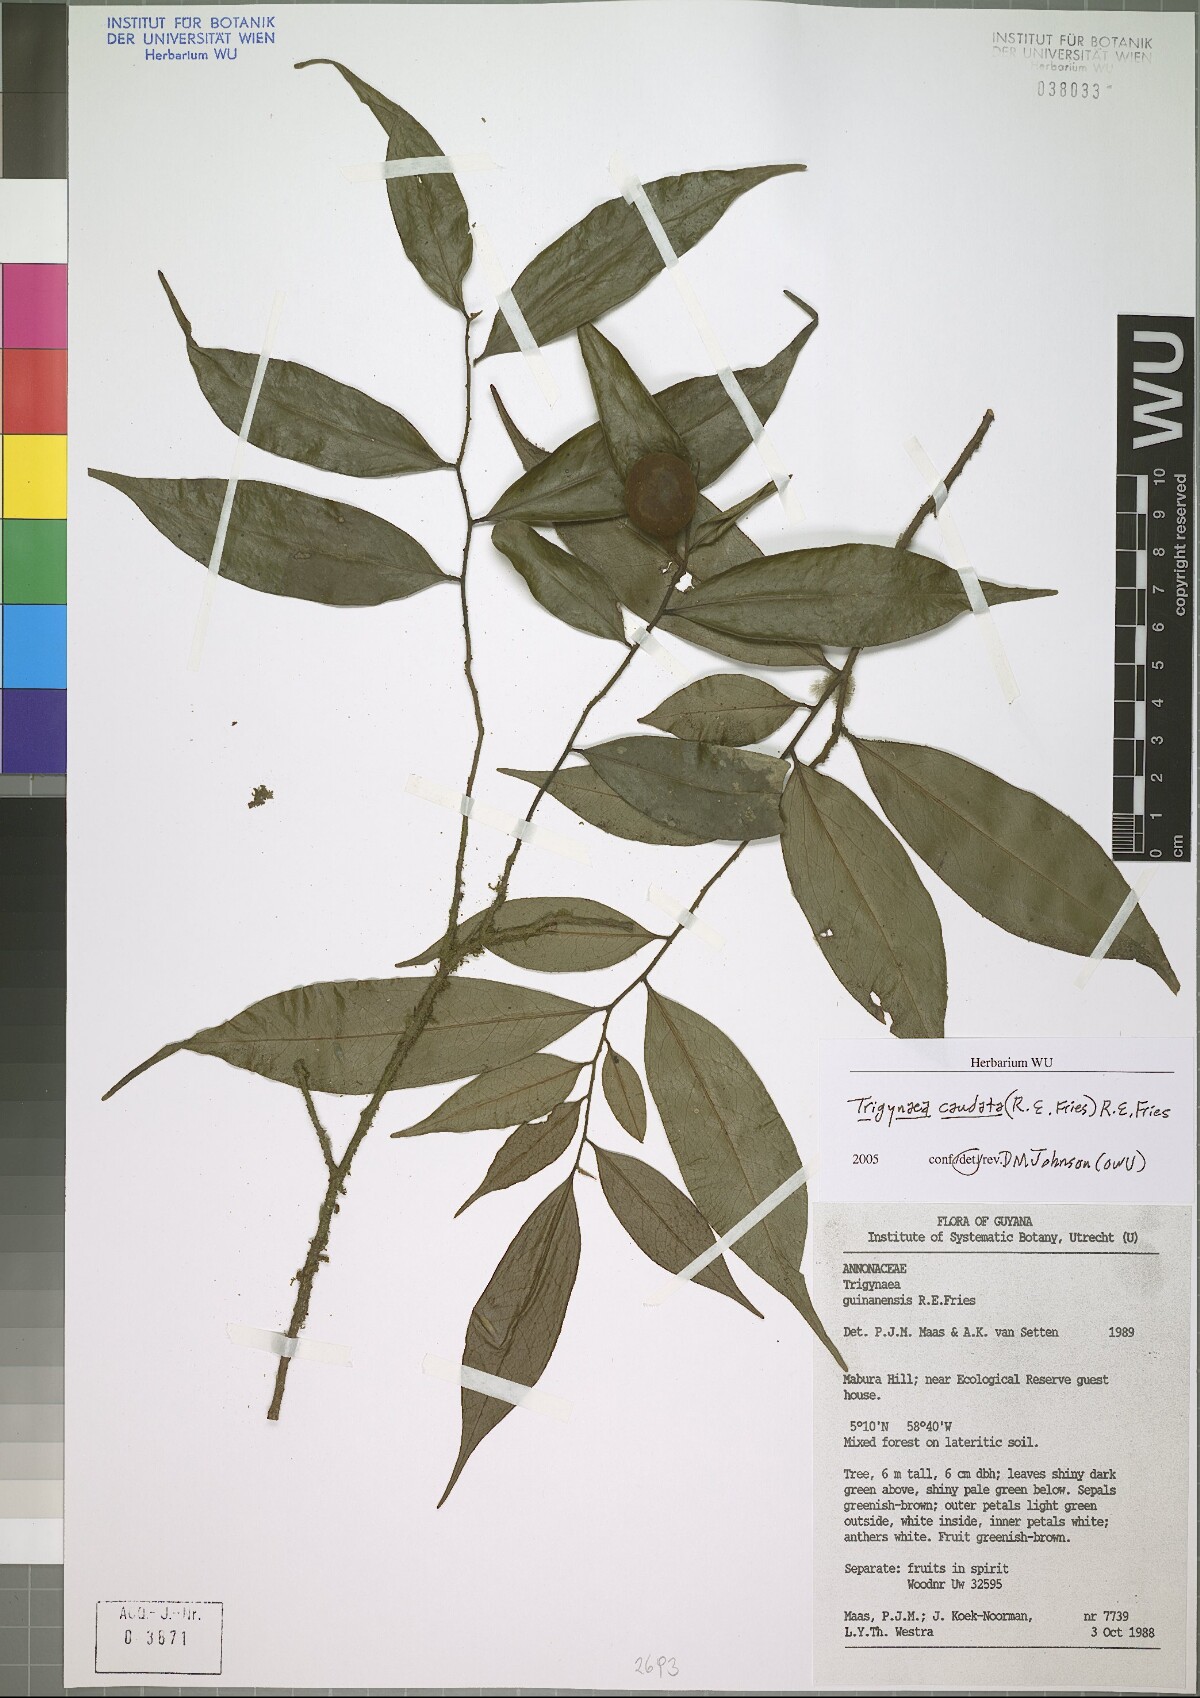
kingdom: Plantae
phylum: Tracheophyta
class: Magnoliopsida
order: Magnoliales
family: Annonaceae
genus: Trigynaea
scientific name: Trigynaea caudata
